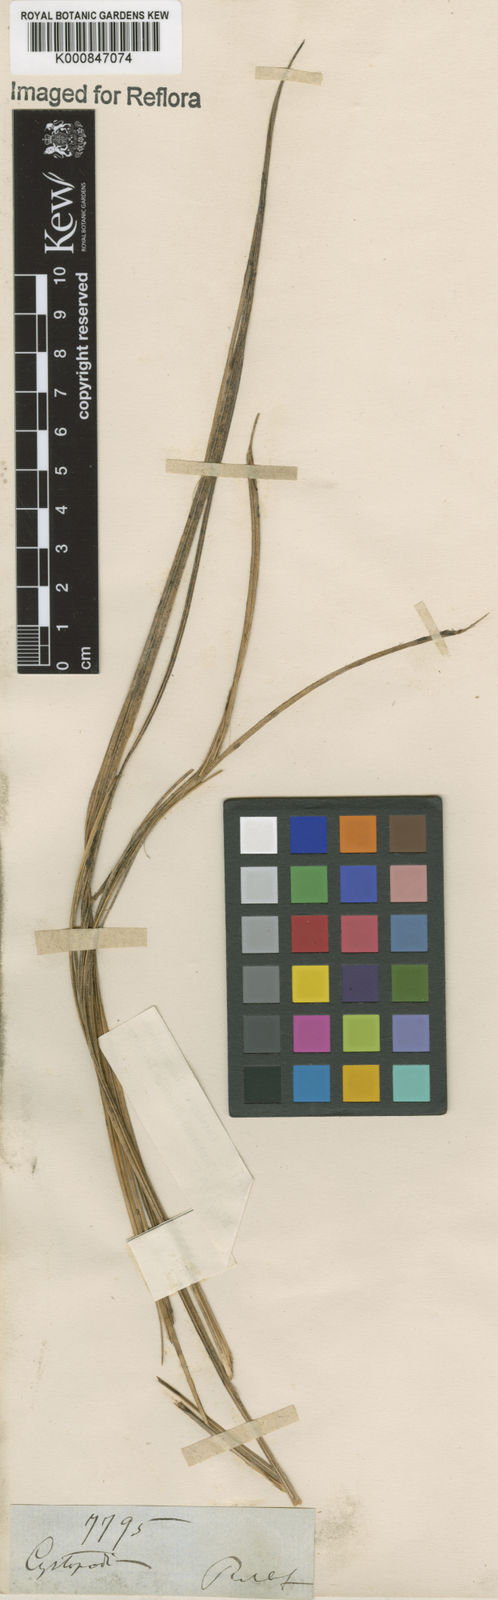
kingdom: Plantae
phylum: Tracheophyta
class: Liliopsida
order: Asparagales
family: Orchidaceae
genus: Cyrtopodium
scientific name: Cyrtopodium
